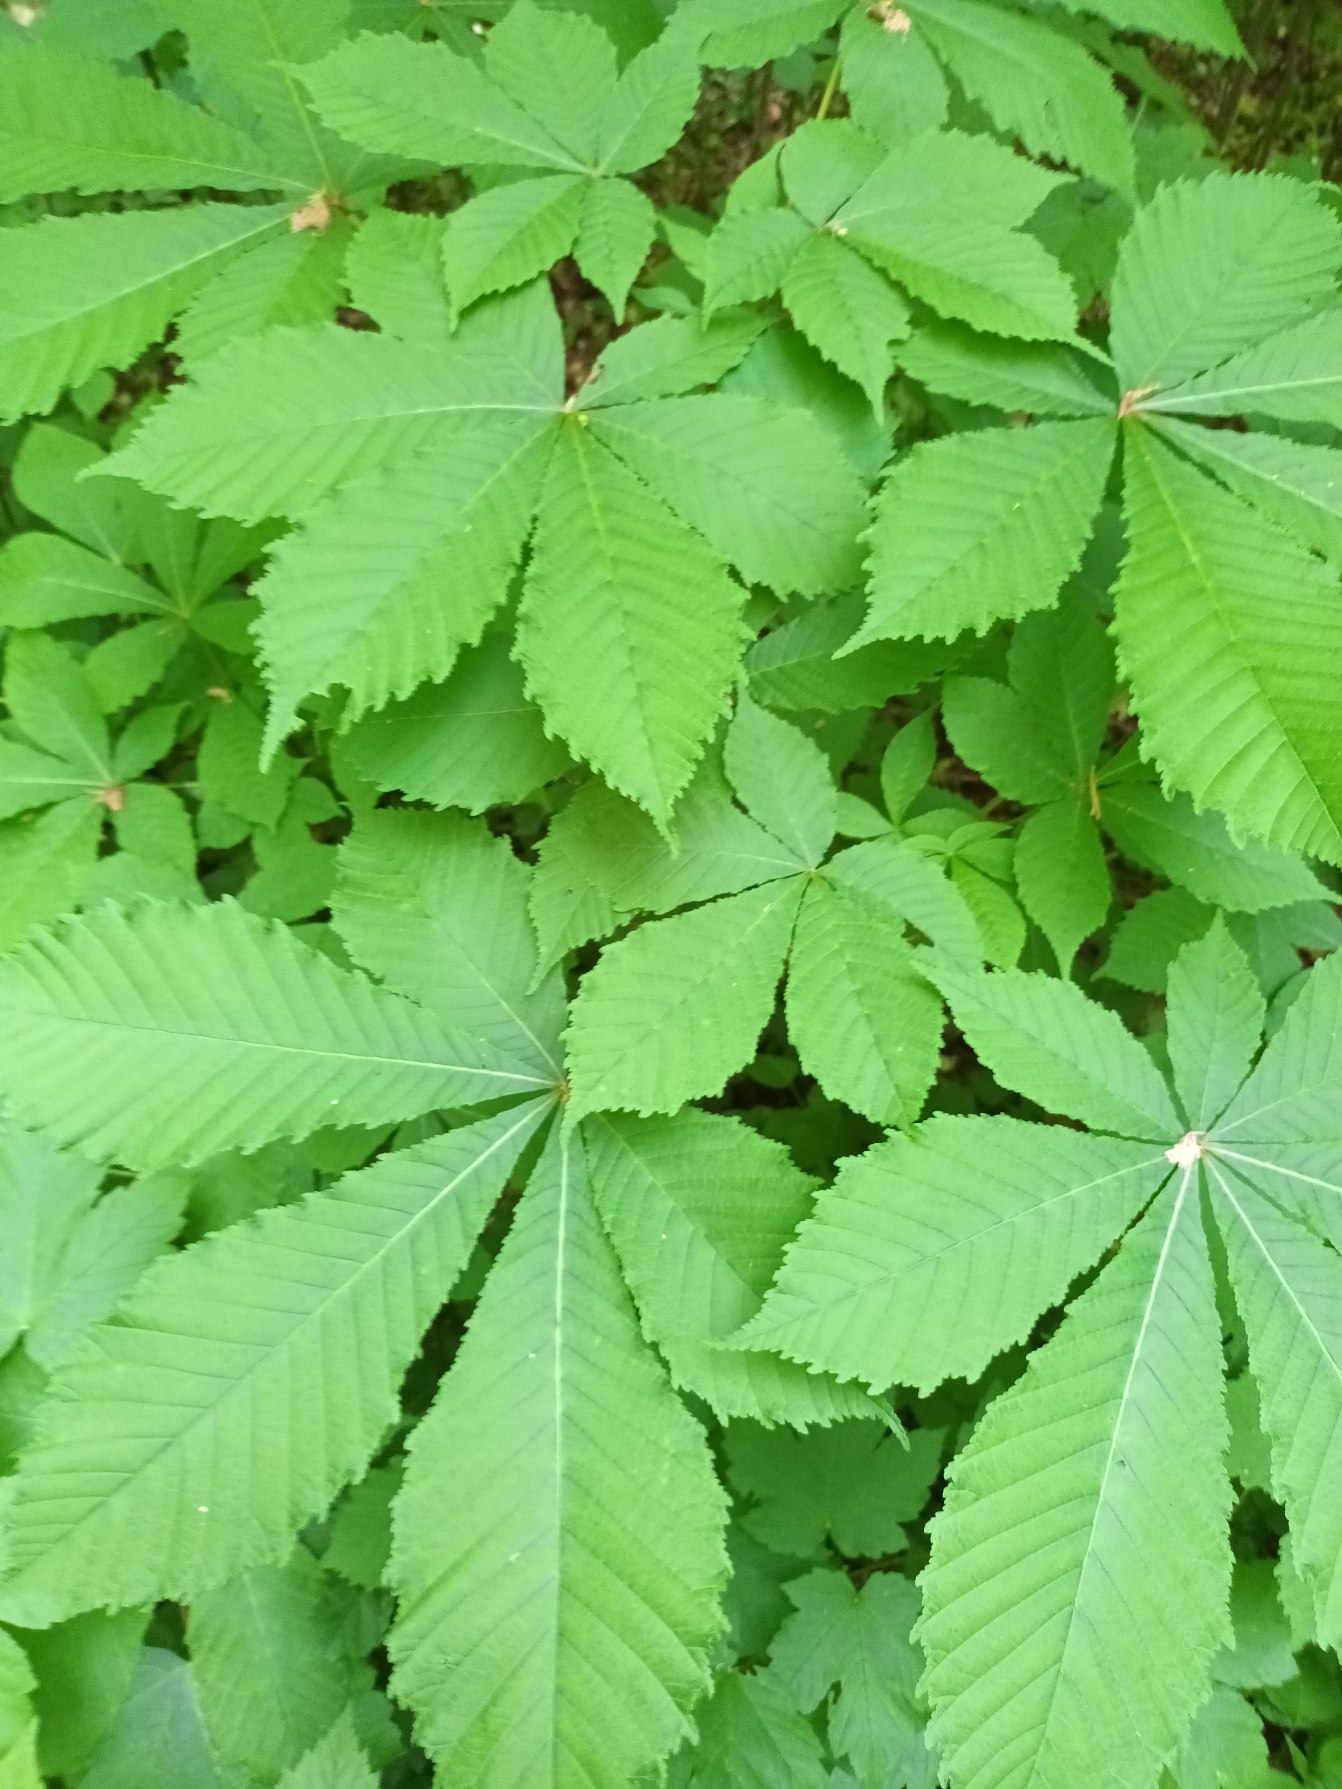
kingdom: Plantae
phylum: Tracheophyta
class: Magnoliopsida
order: Sapindales
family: Sapindaceae
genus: Aesculus
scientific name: Aesculus hippocastanum
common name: Hestekastanie
